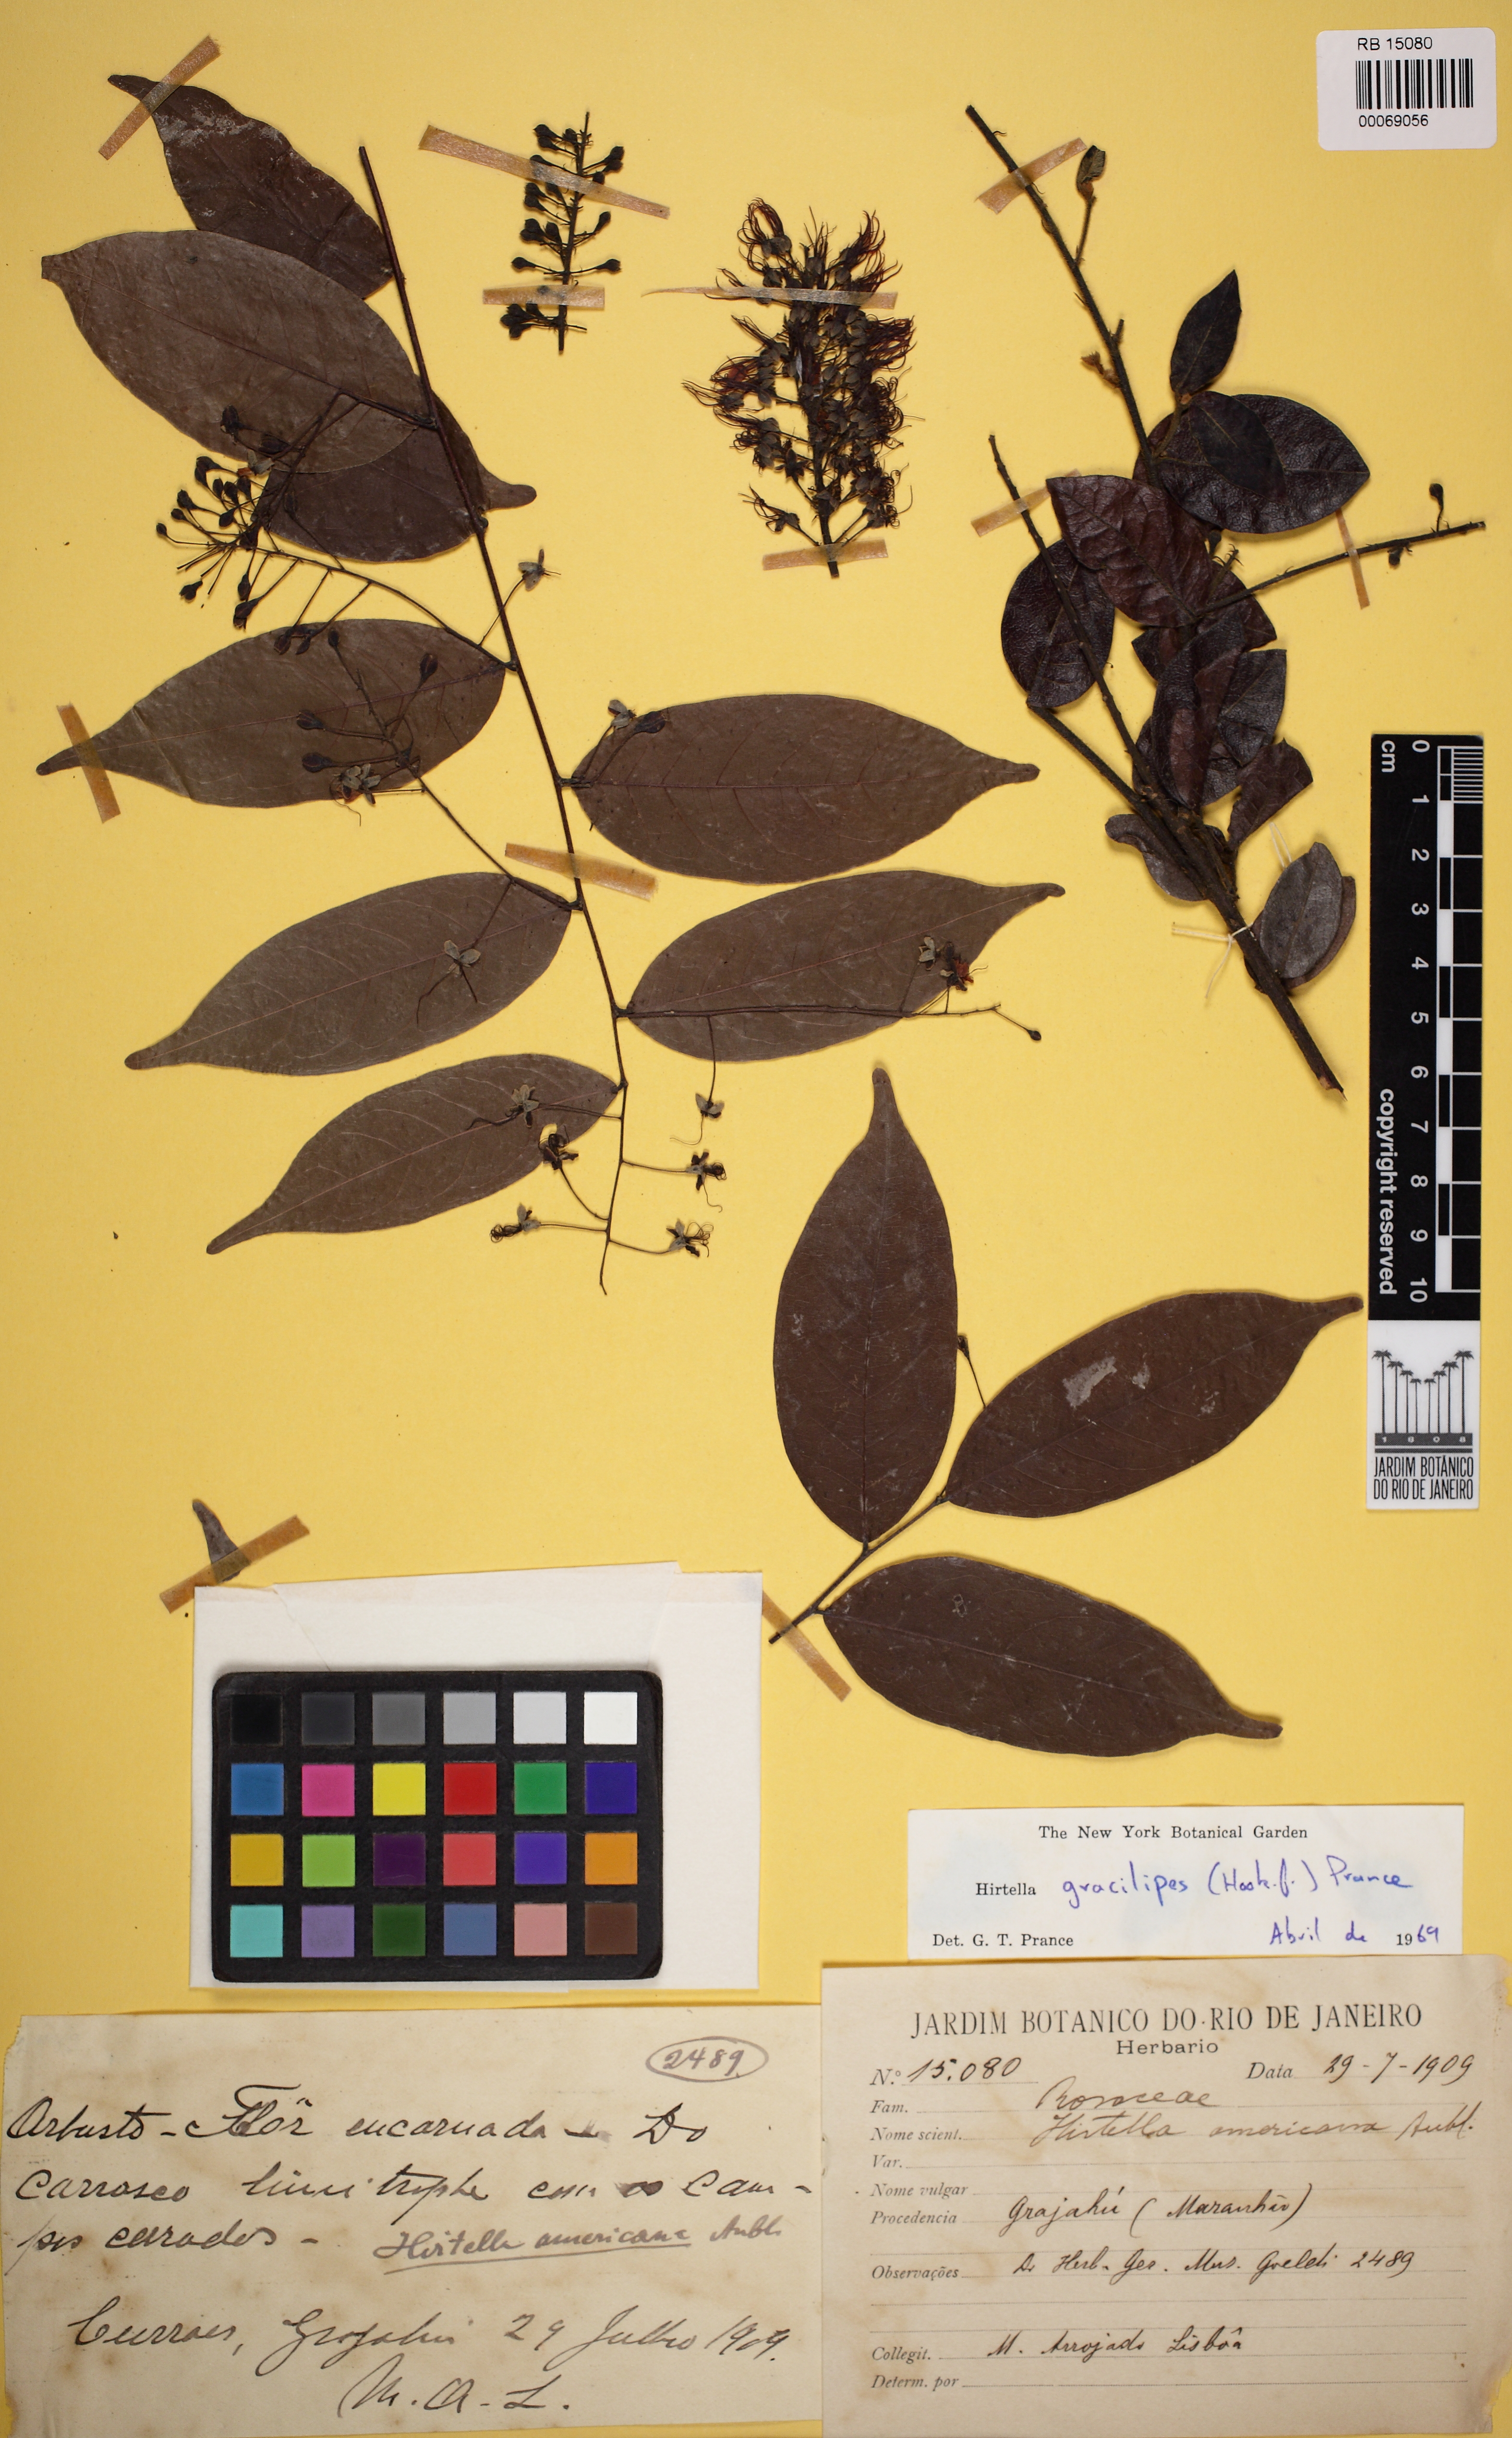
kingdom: Plantae
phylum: Tracheophyta
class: Magnoliopsida
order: Malpighiales
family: Chrysobalanaceae
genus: Hirtella
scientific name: Hirtella gracilipes
